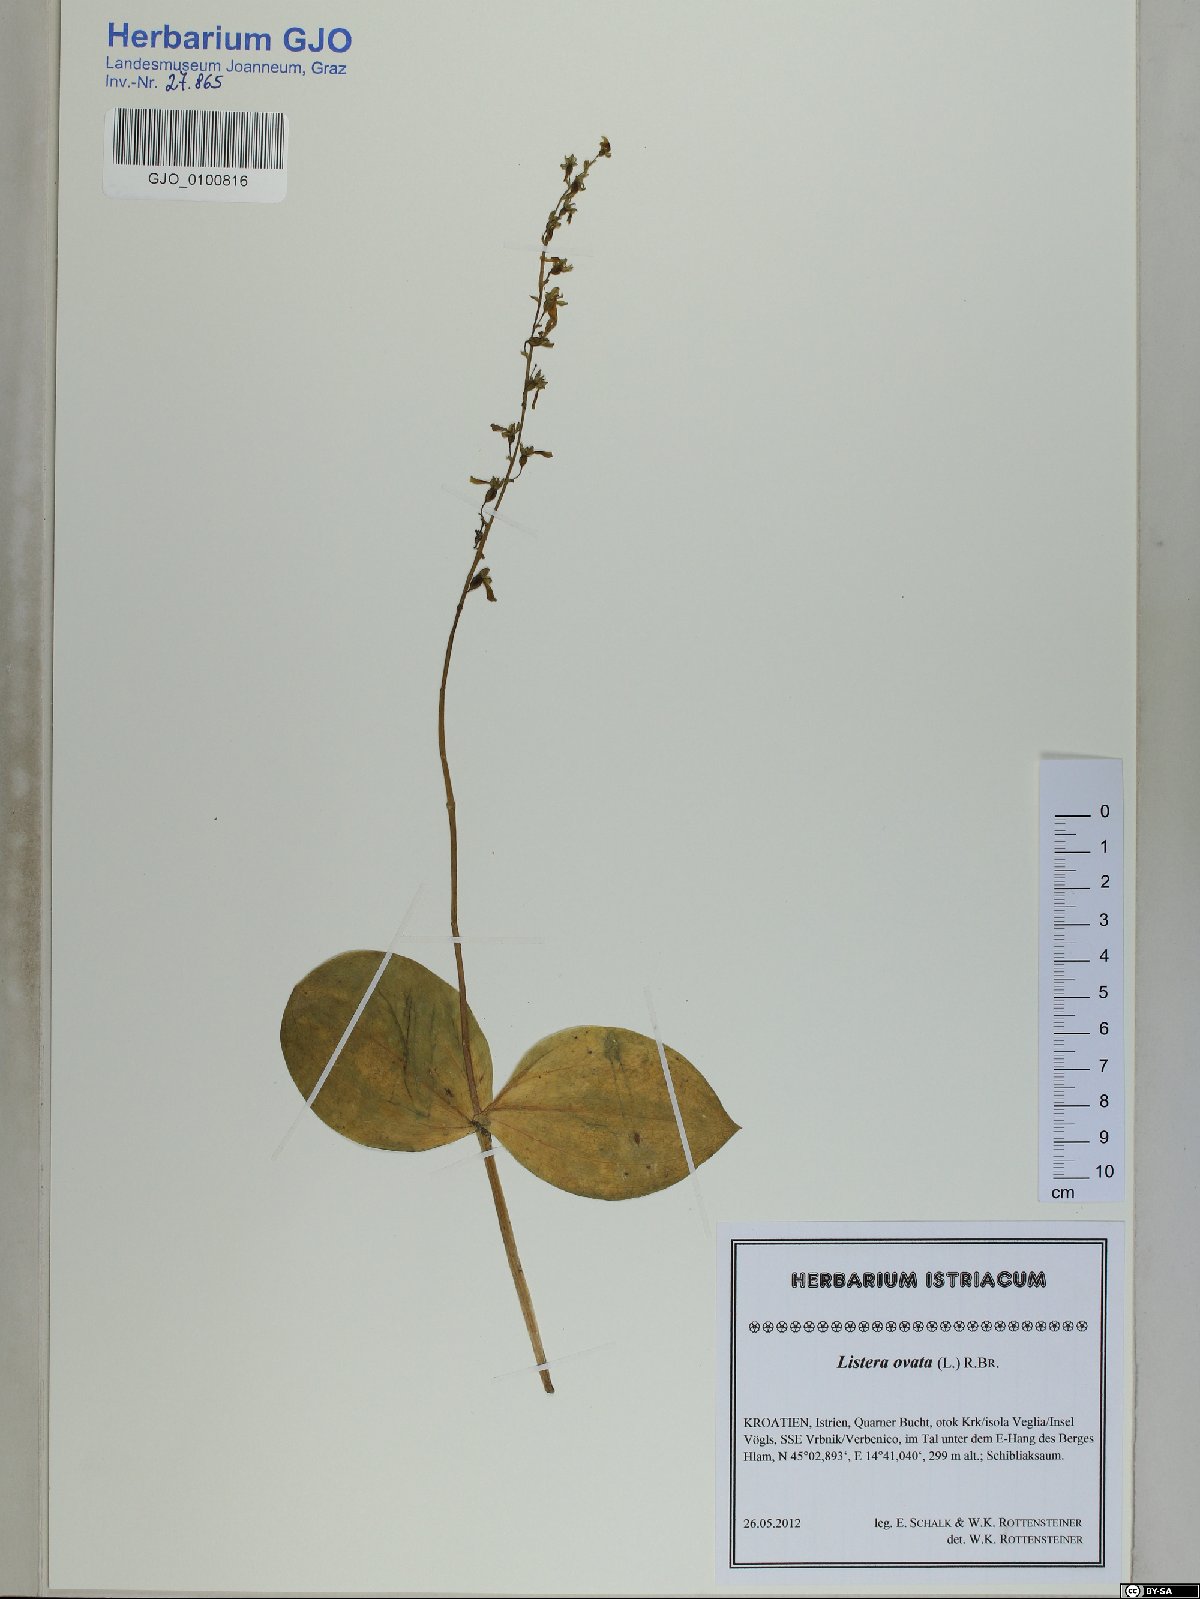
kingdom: Plantae
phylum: Tracheophyta
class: Liliopsida
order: Asparagales
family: Orchidaceae
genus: Neottia
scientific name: Neottia ovata
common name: Common twayblade
